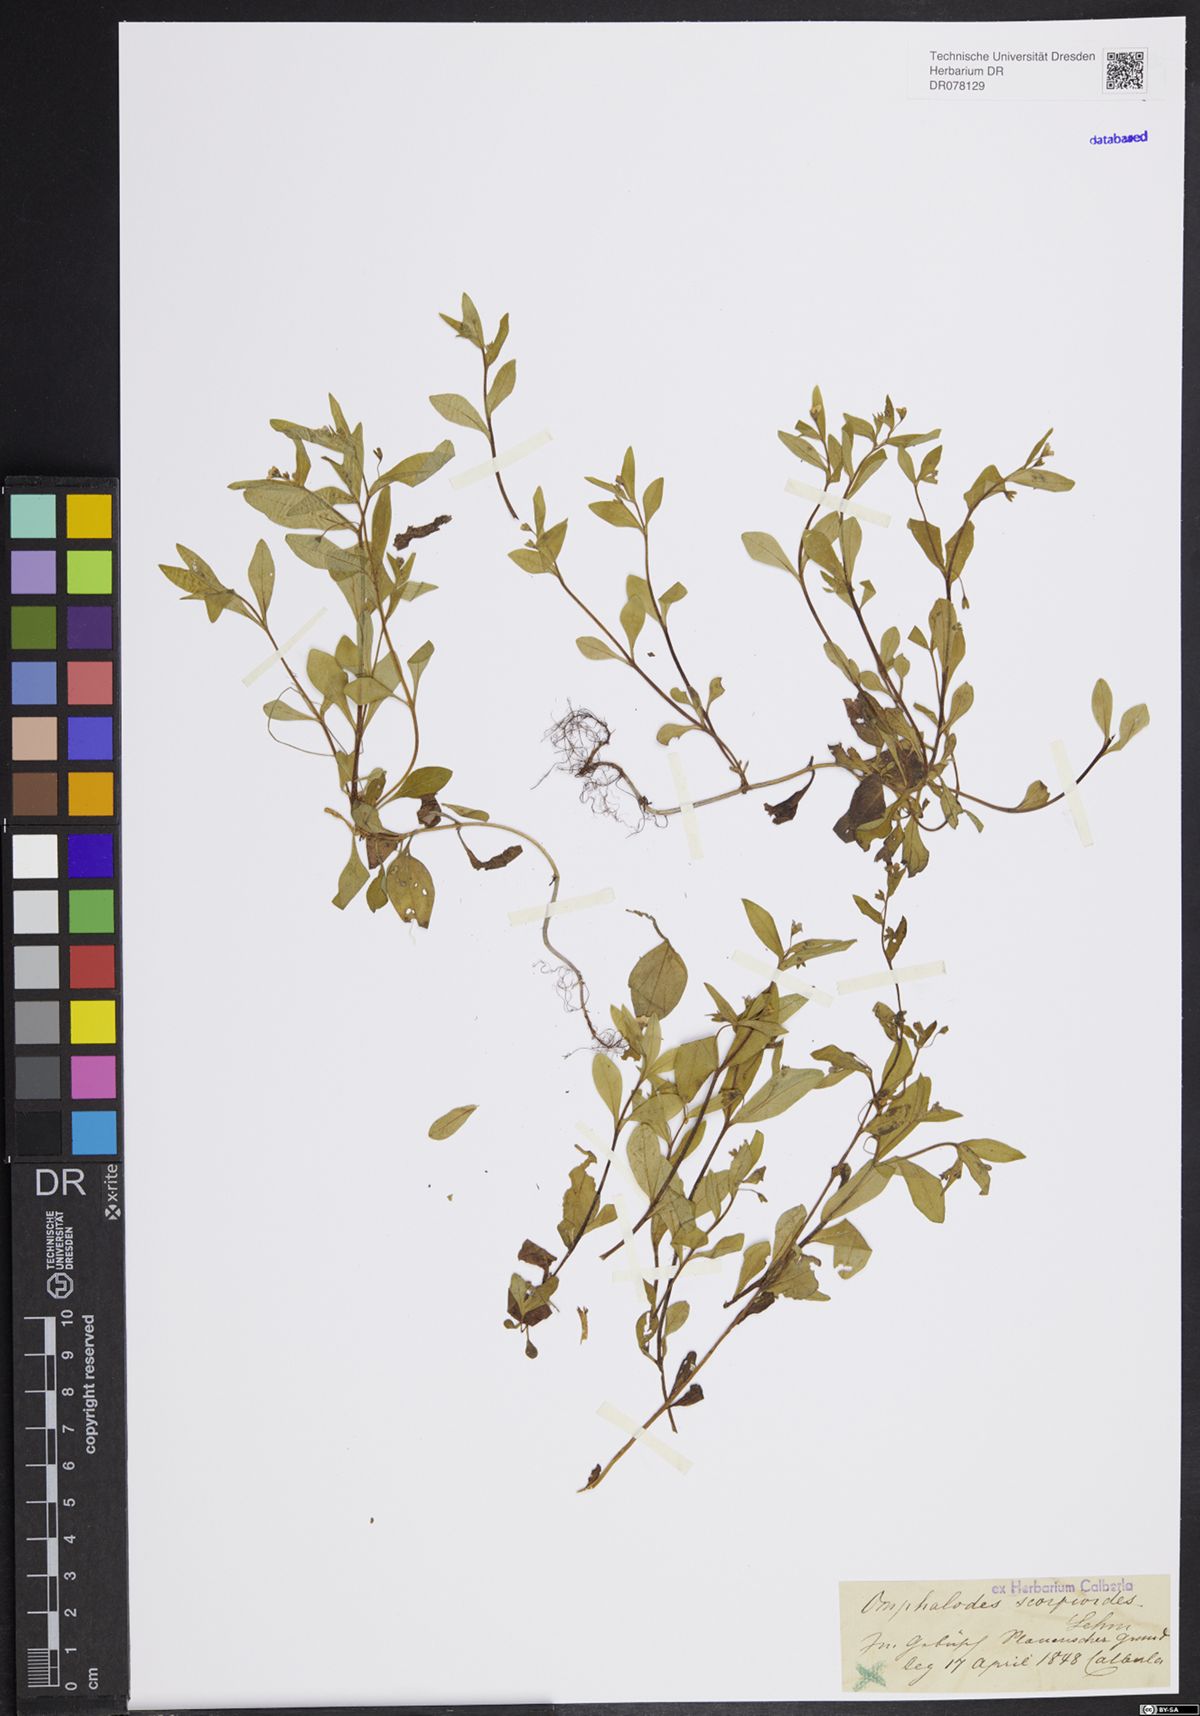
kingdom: Plantae
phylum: Tracheophyta
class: Magnoliopsida
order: Boraginales
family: Boraginaceae
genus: Memoremea
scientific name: Memoremea scorpioides
